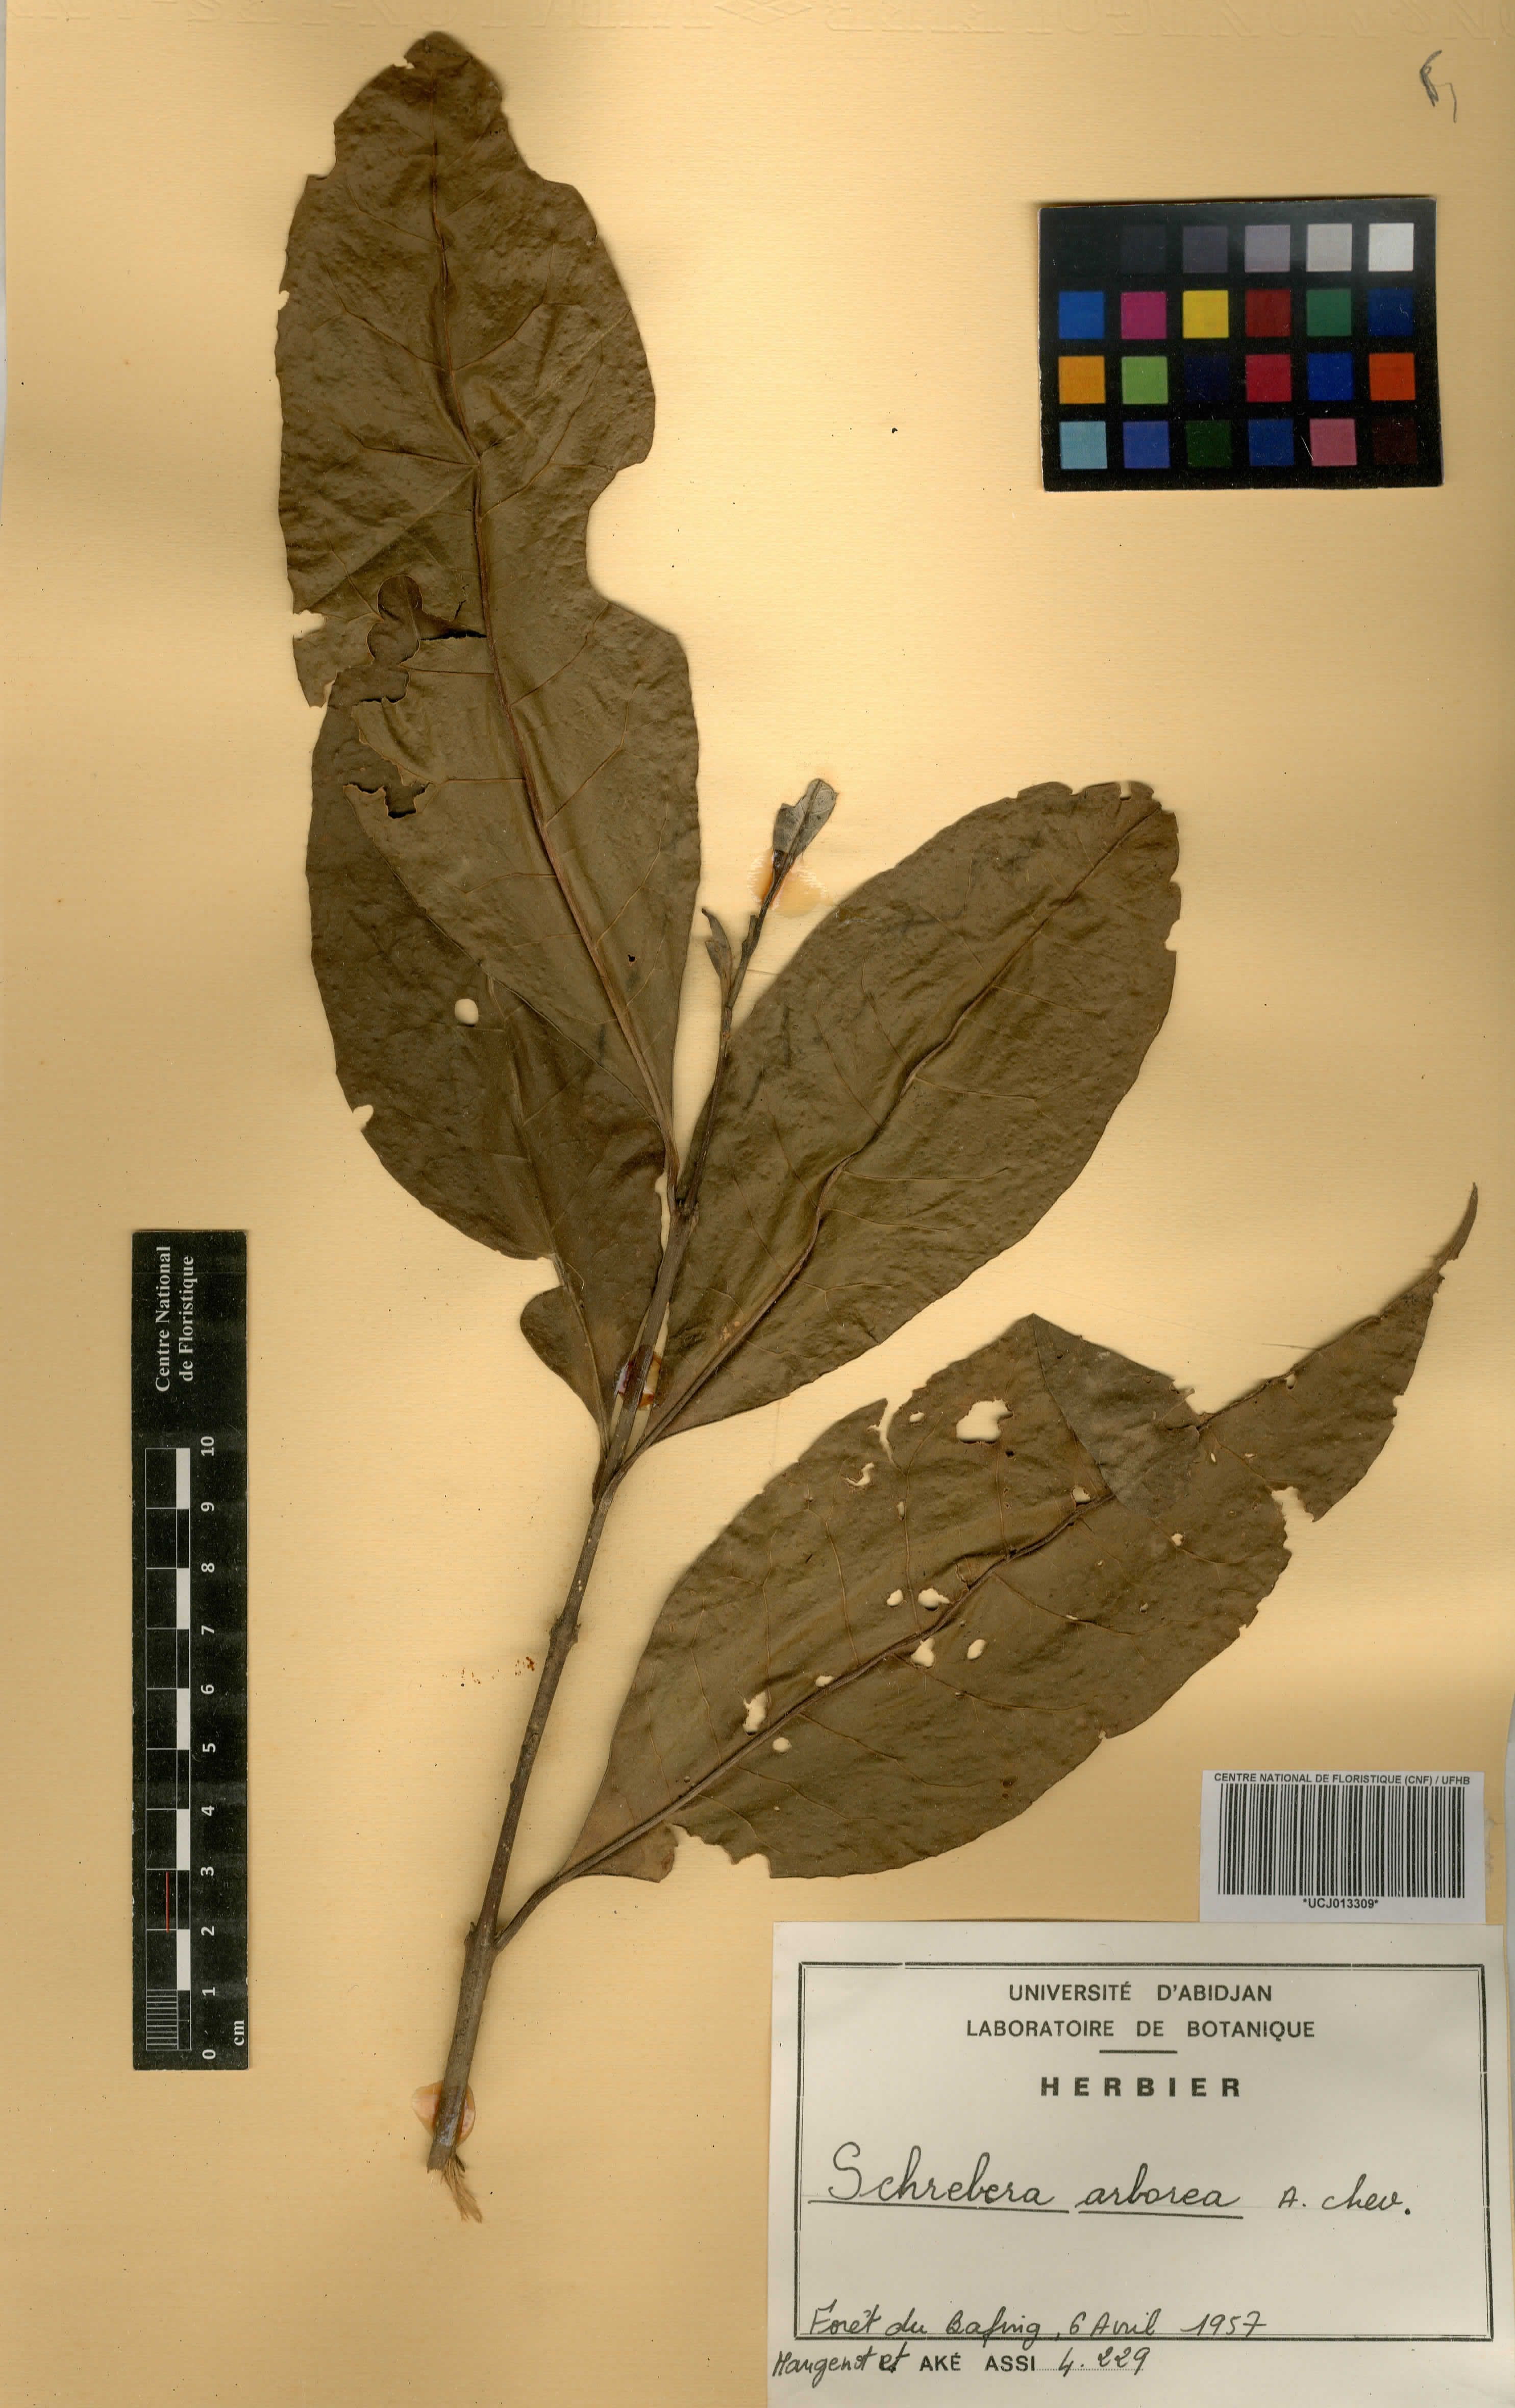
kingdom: Plantae
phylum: Tracheophyta
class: Magnoliopsida
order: Lamiales
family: Oleaceae
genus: Schrebera
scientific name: Schrebera arborea
